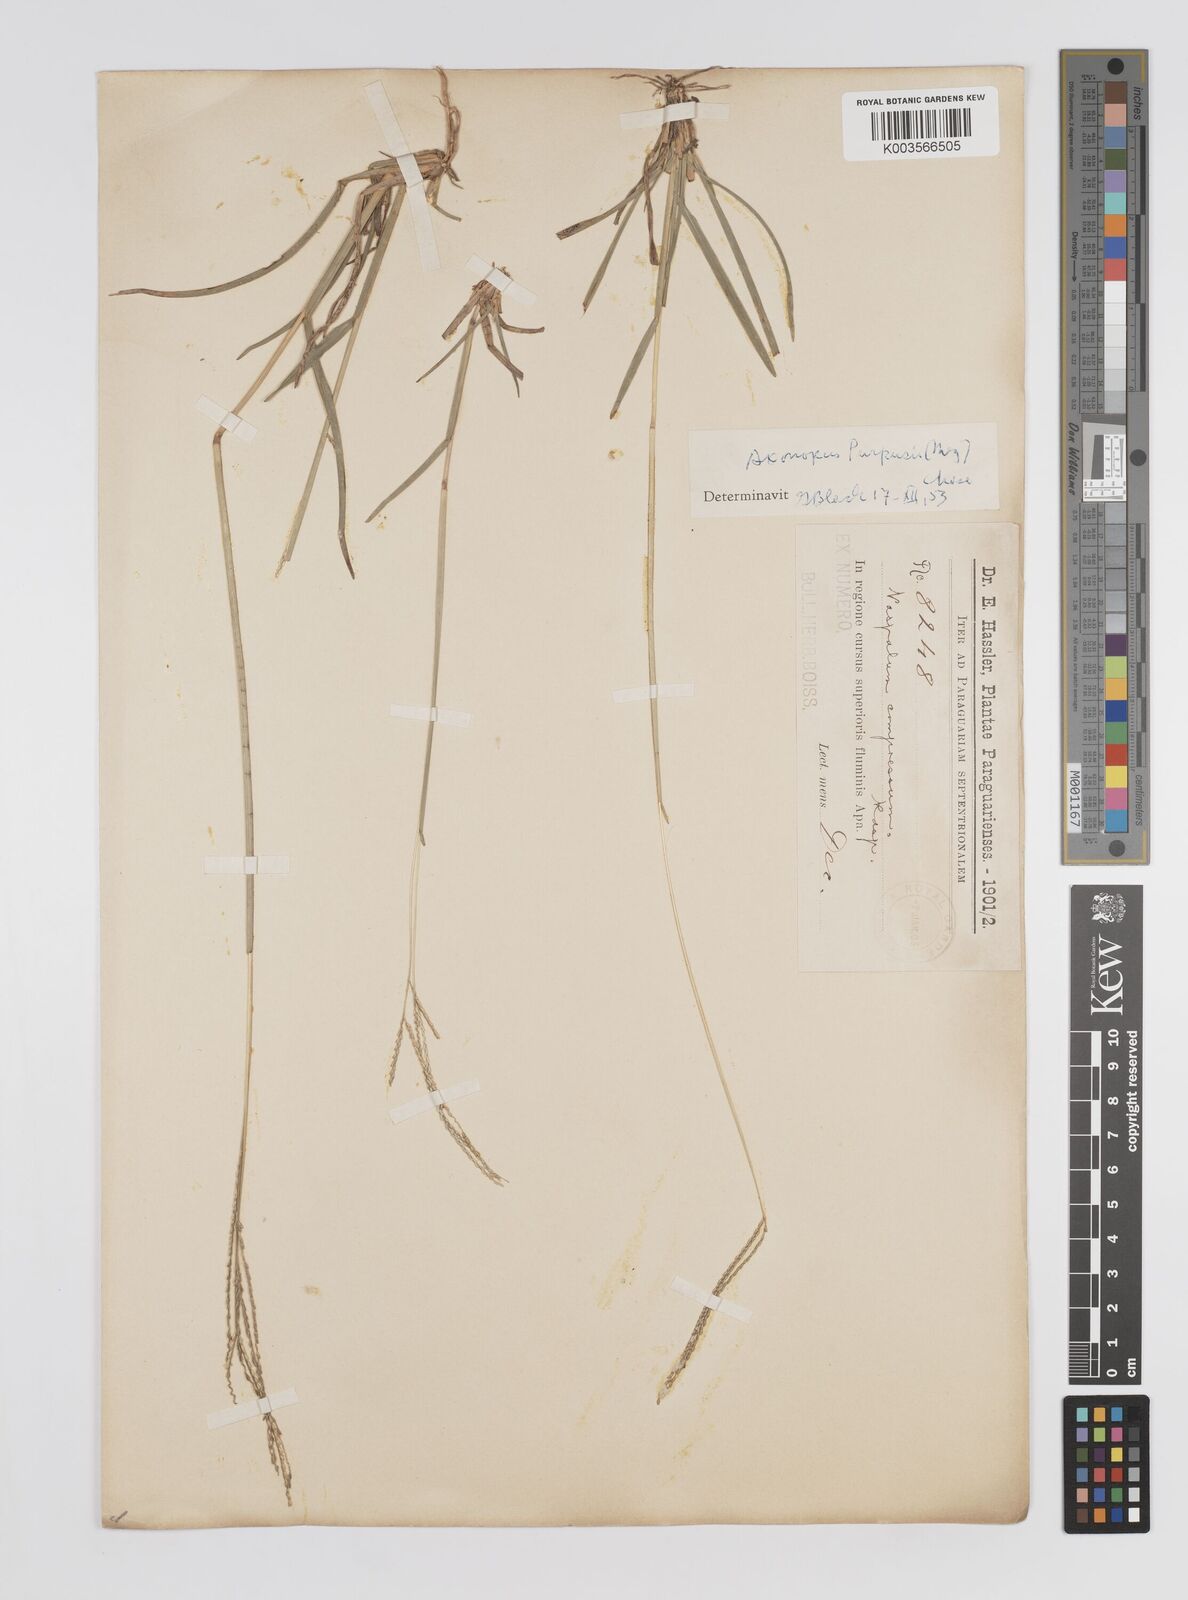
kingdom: Plantae
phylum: Tracheophyta
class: Liliopsida
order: Poales
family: Poaceae
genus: Axonopus
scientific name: Axonopus purpusii
